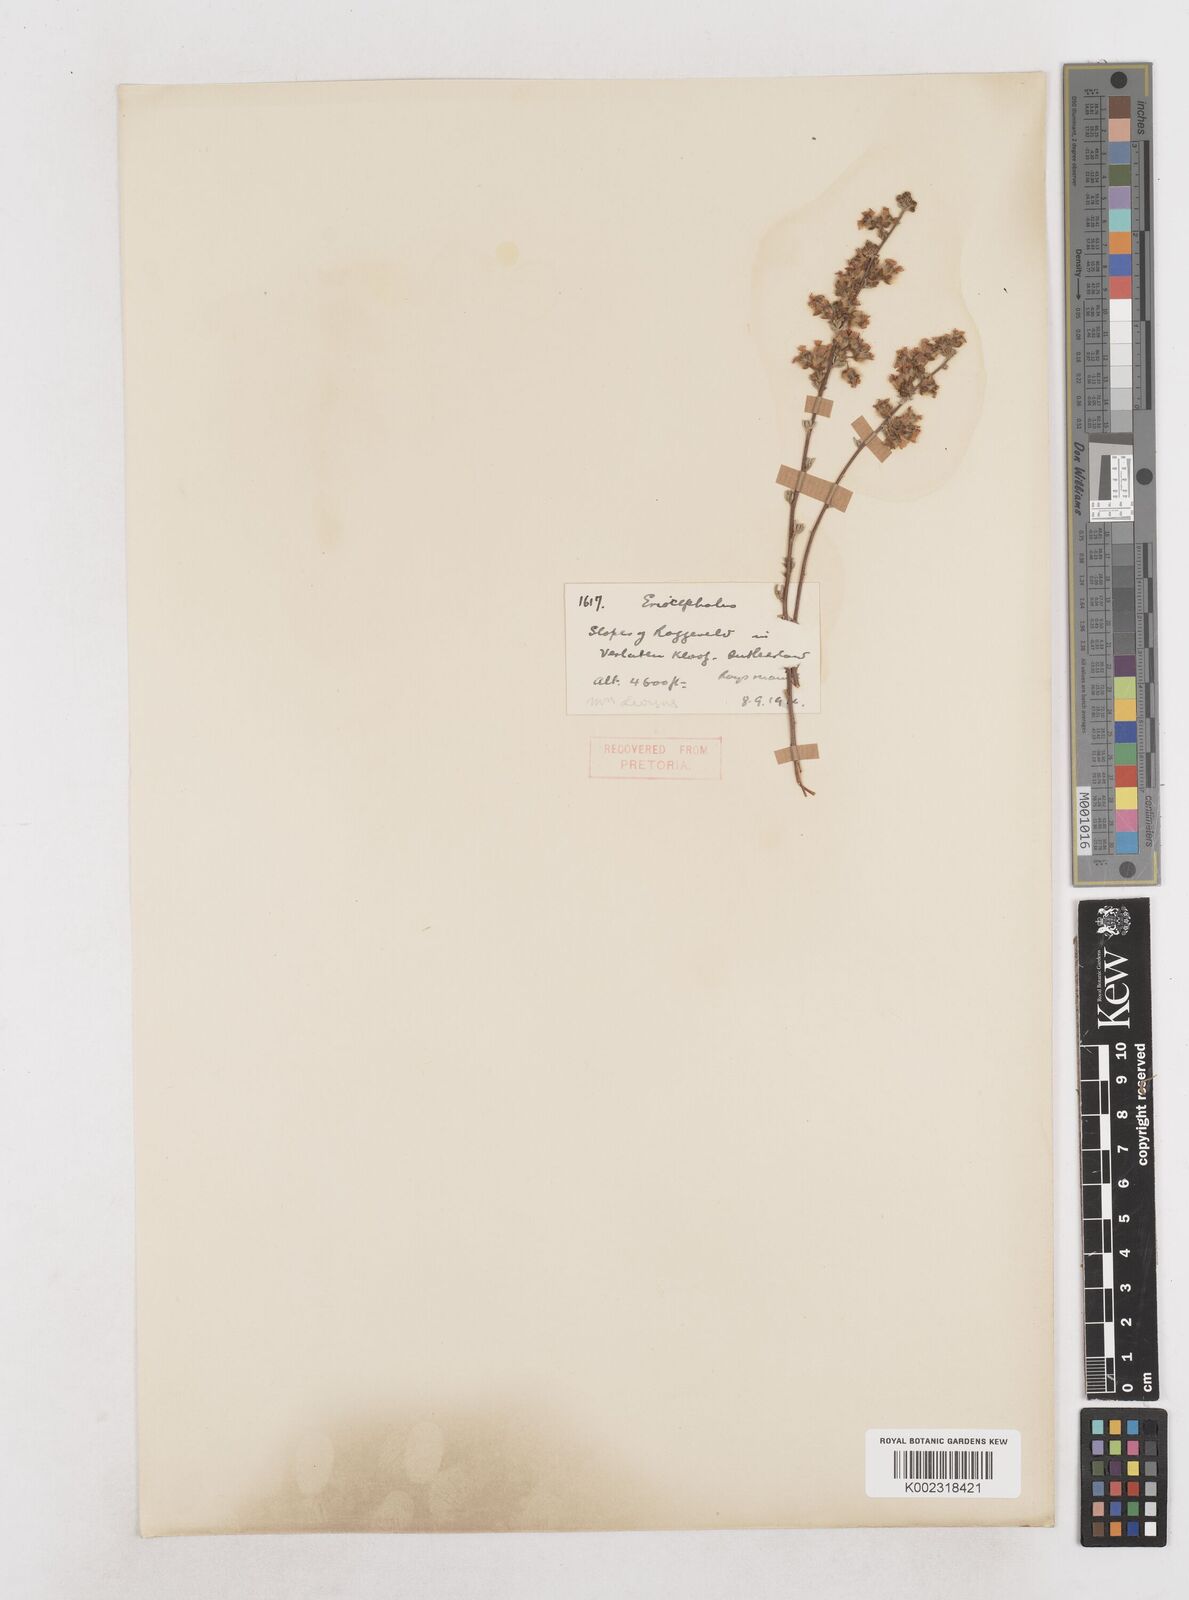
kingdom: Plantae
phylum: Tracheophyta
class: Magnoliopsida
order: Asterales
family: Asteraceae
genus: Eriocephalus
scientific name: Eriocephalus
